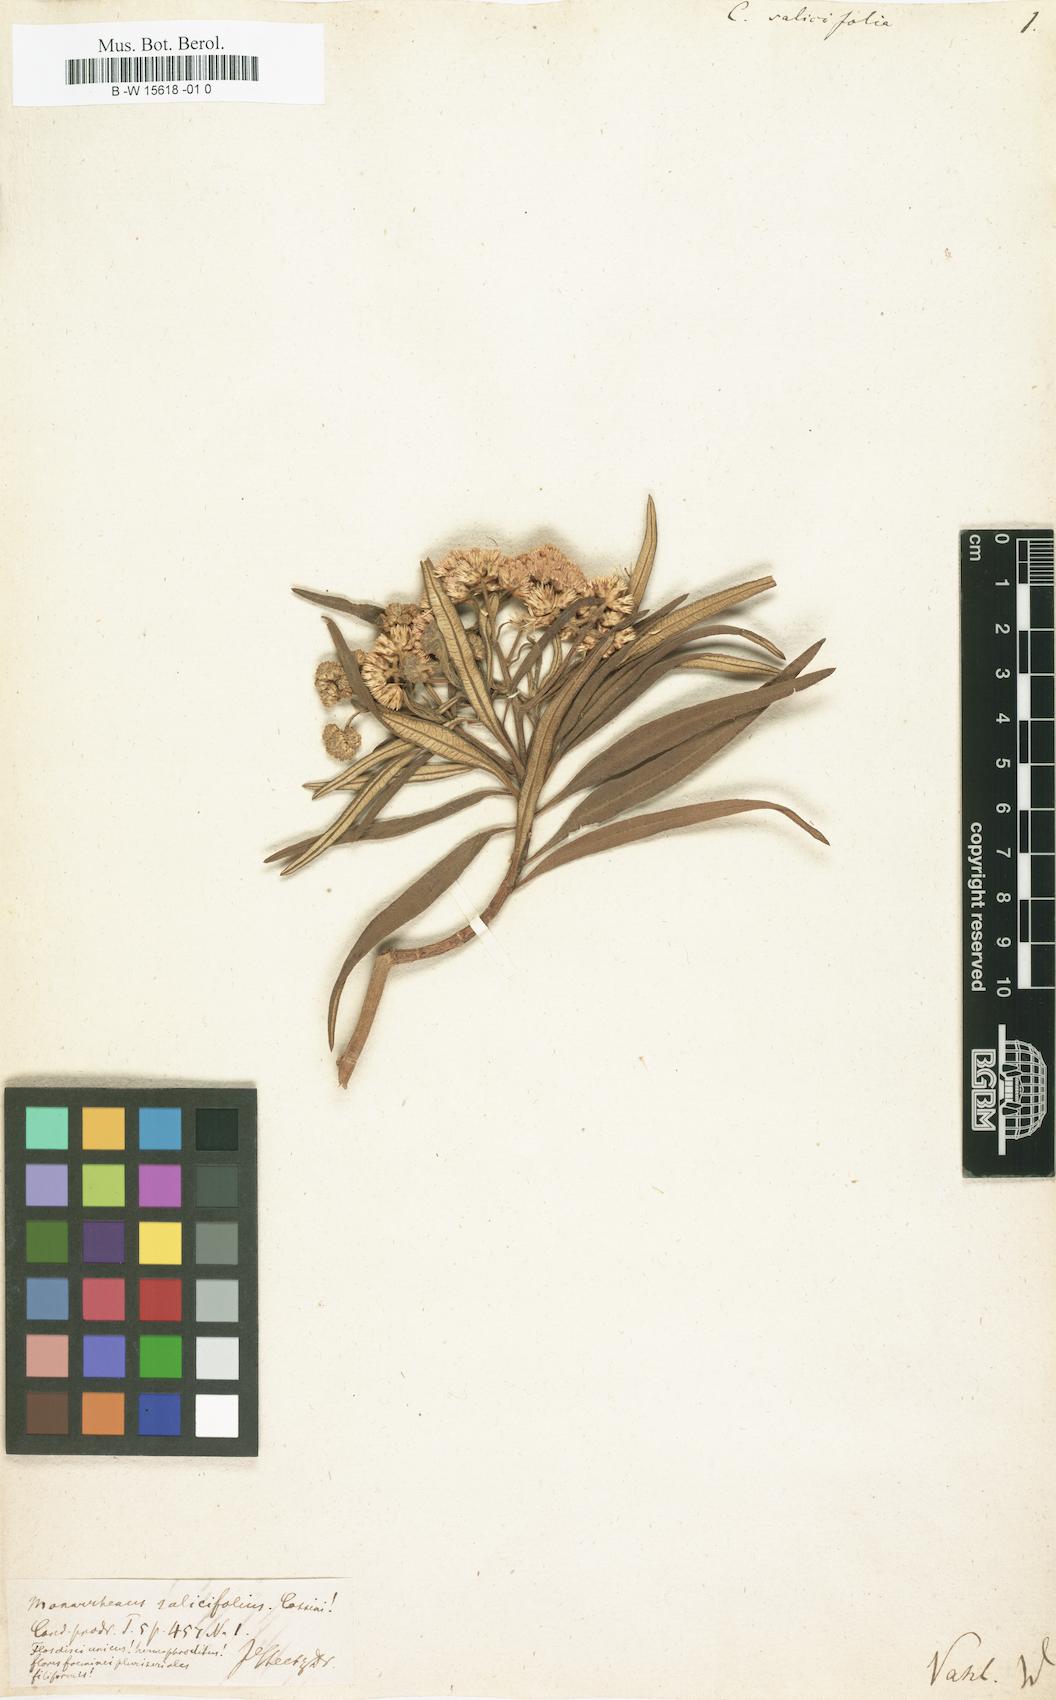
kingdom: Plantae
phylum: Tracheophyta
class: Magnoliopsida
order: Asterales
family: Asteraceae
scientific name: Asteraceae
